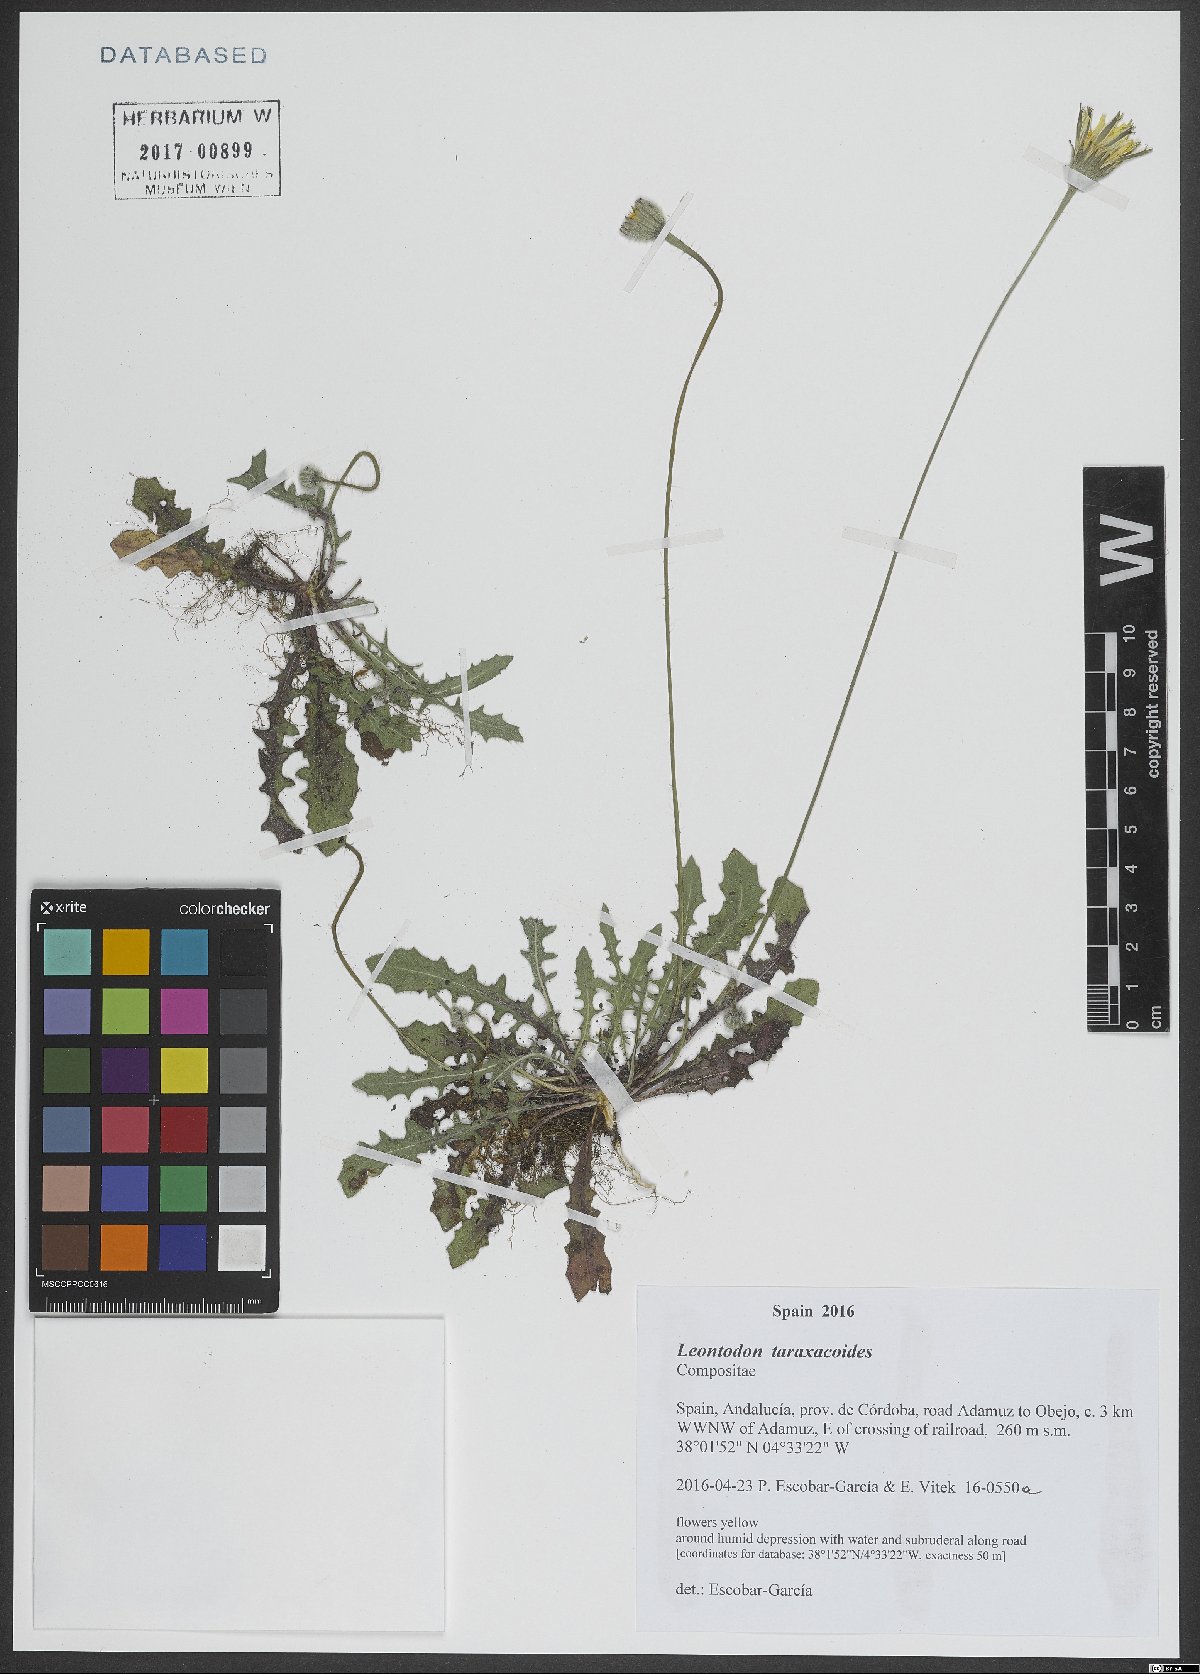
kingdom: Plantae
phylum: Tracheophyta
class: Magnoliopsida
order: Asterales
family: Asteraceae
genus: Thrincia
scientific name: Thrincia saxatilis
